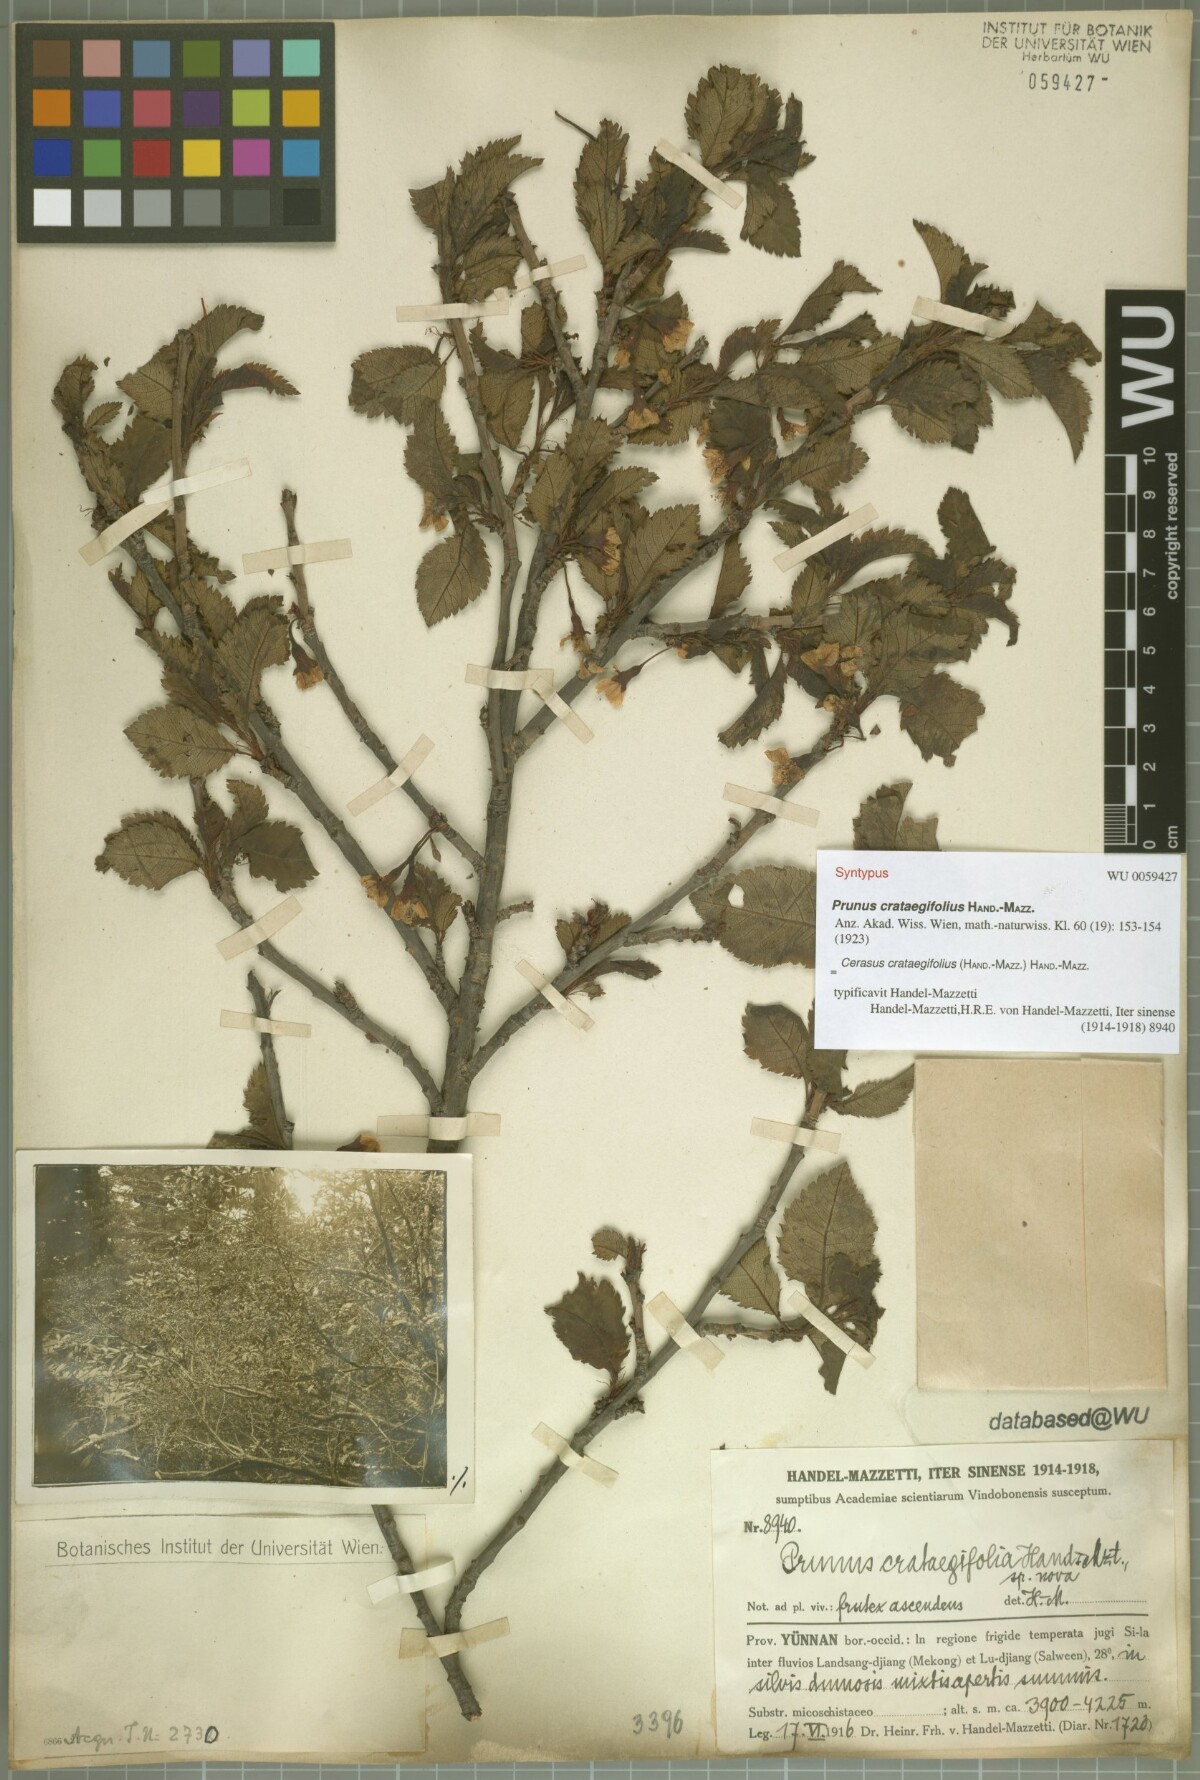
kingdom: Plantae
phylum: Tracheophyta
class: Magnoliopsida
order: Rosales
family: Rosaceae
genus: Prunus
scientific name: Prunus crataegifolia
